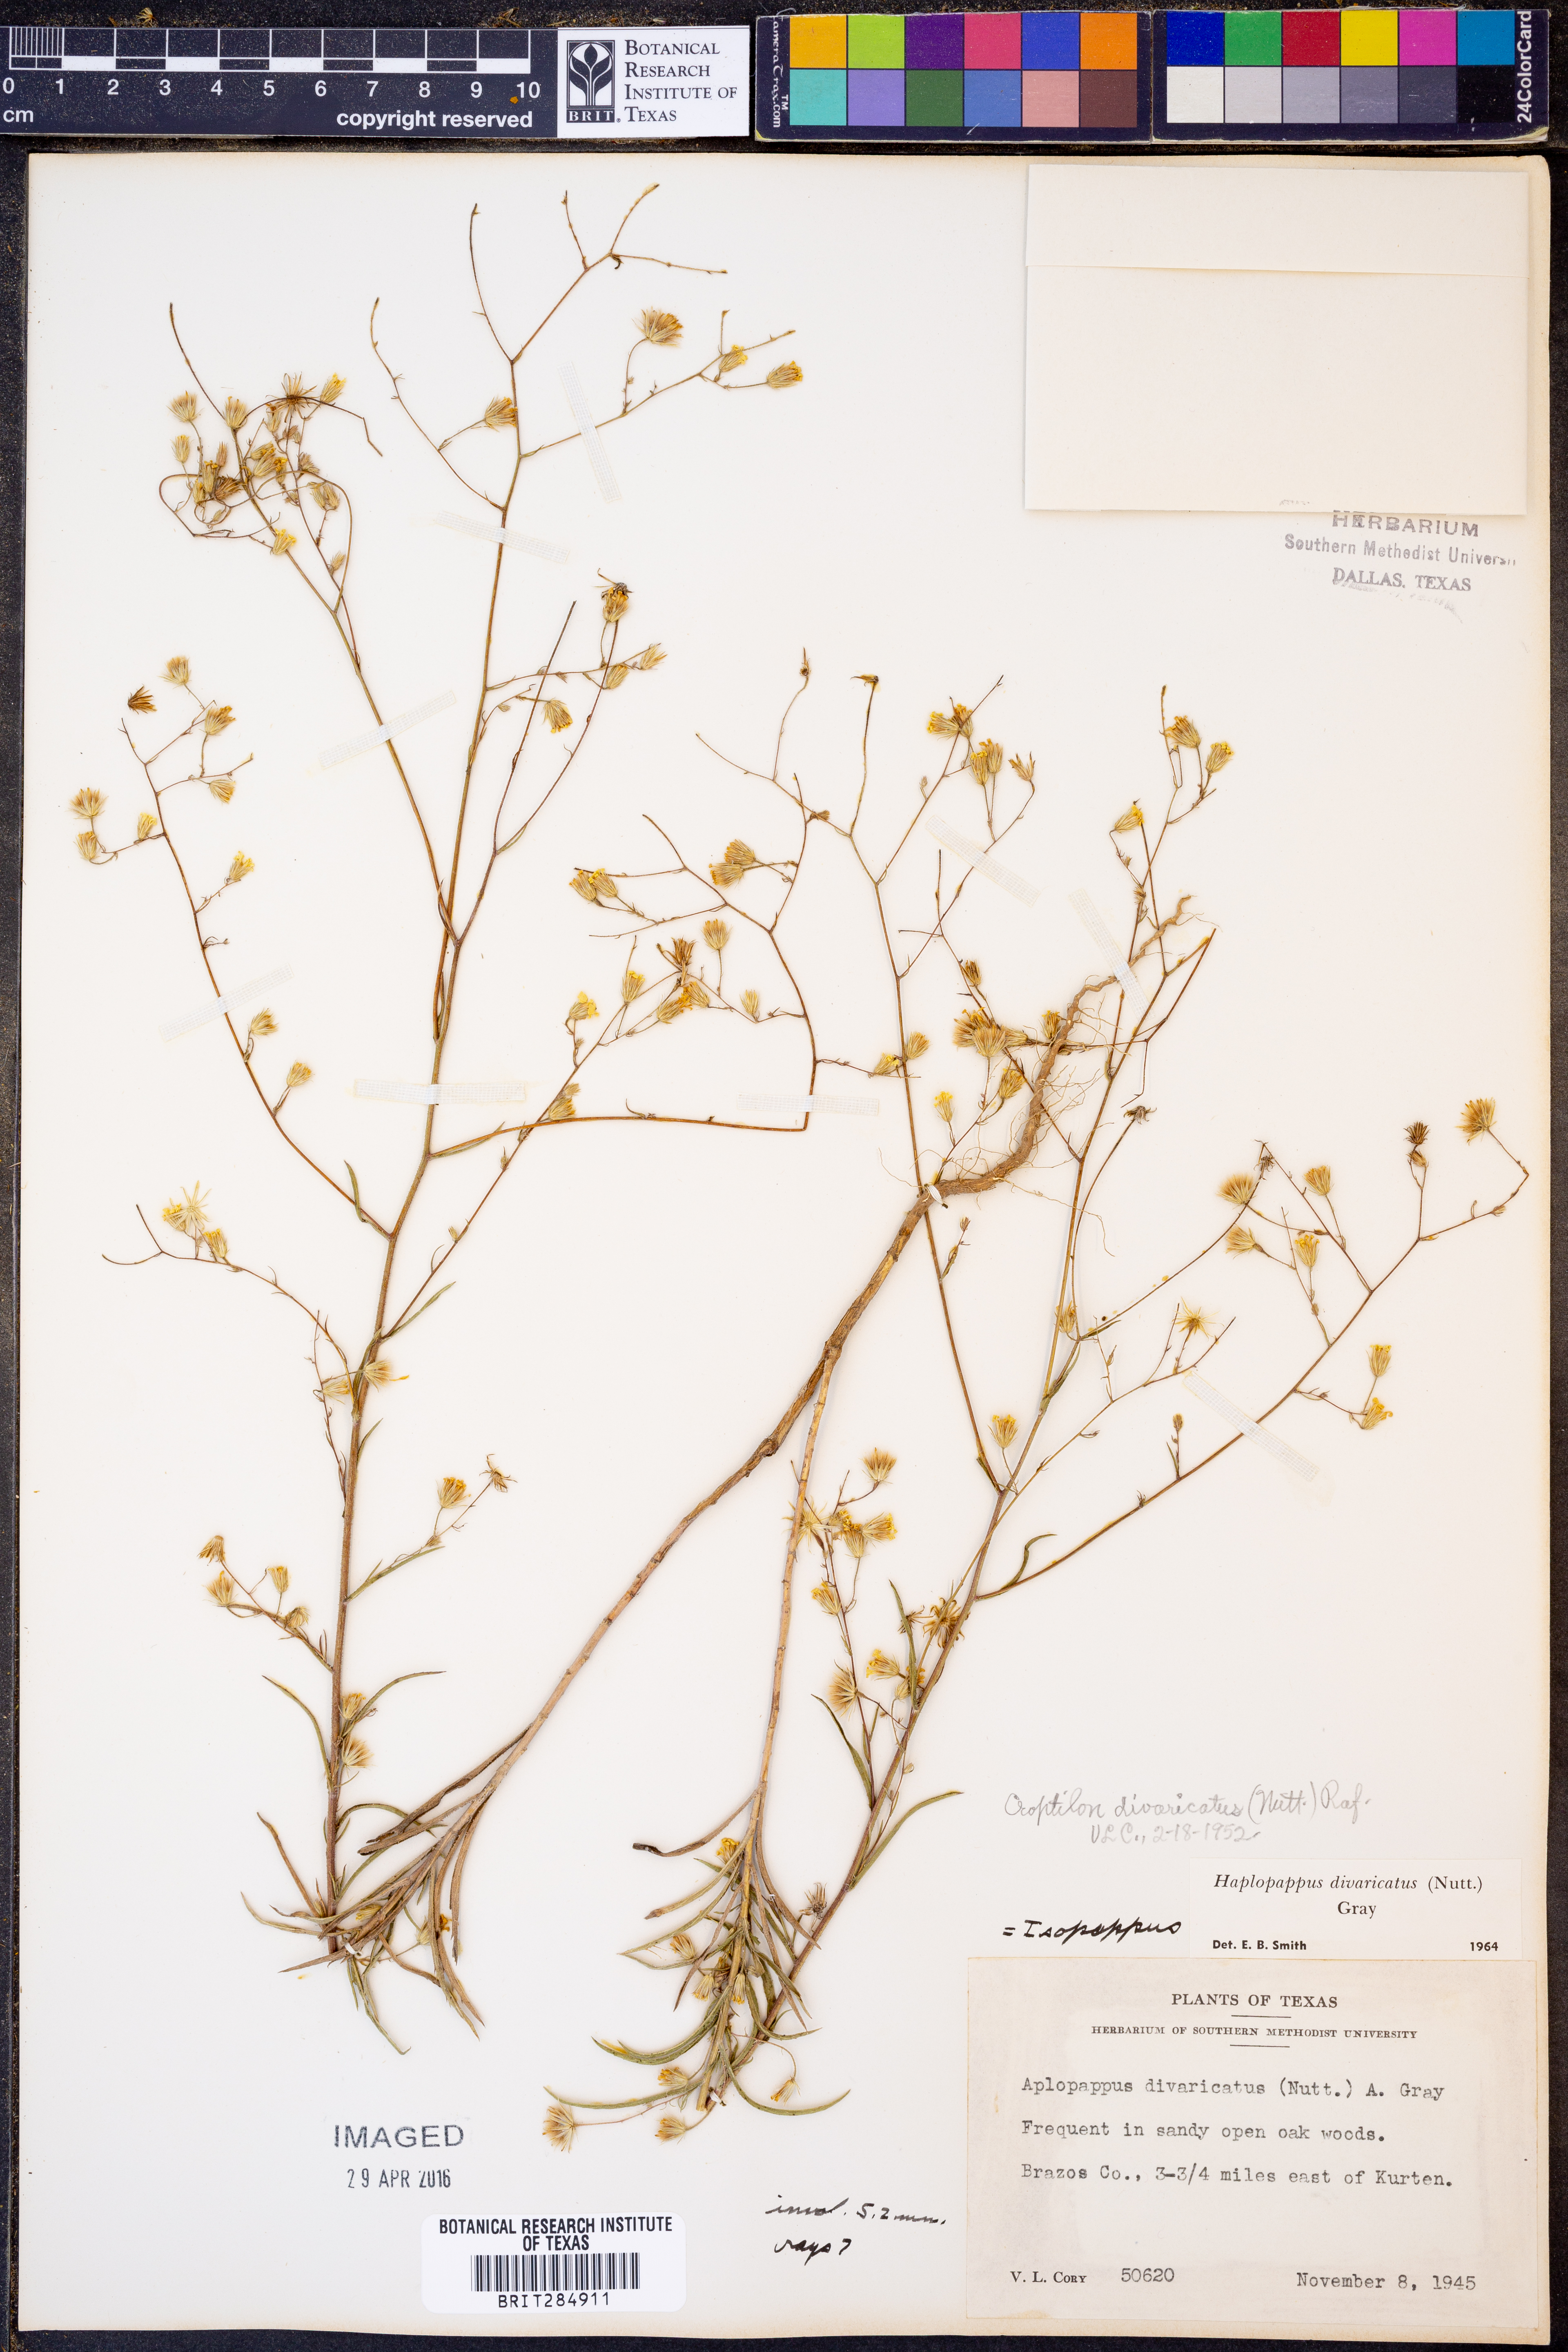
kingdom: Plantae
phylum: Tracheophyta
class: Magnoliopsida
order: Asterales
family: Asteraceae
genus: Croptilon
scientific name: Croptilon divaricatum
